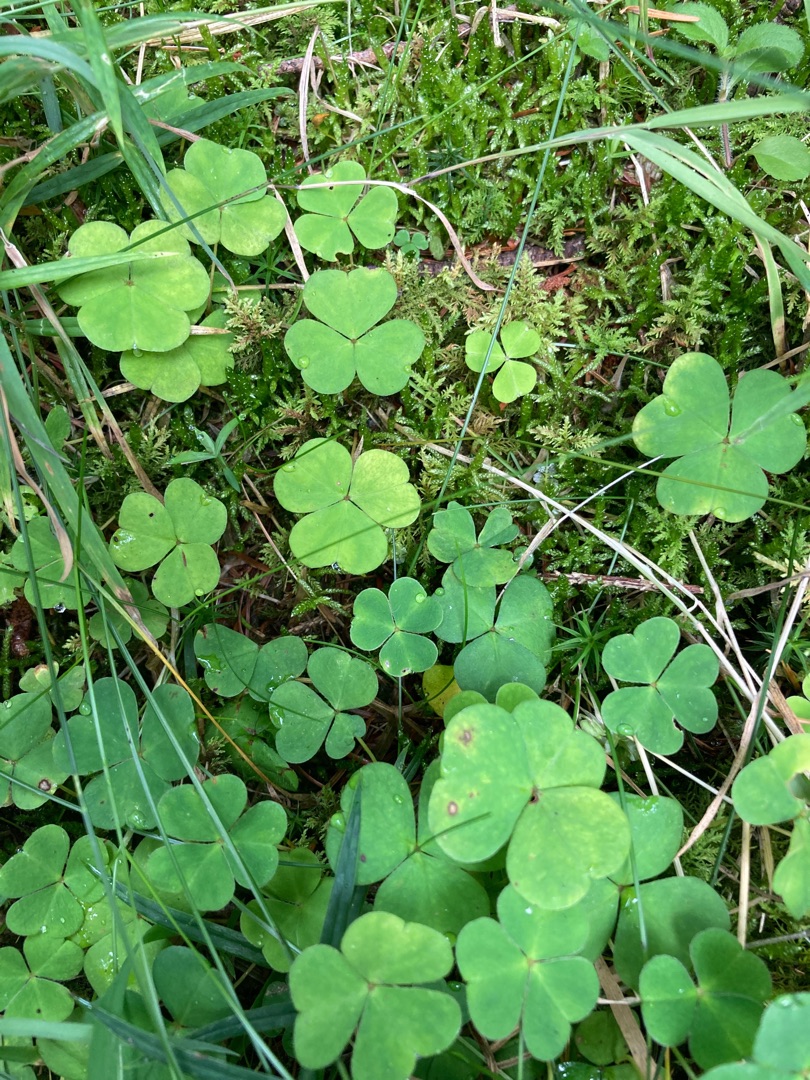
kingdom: Plantae
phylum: Tracheophyta
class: Magnoliopsida
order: Oxalidales
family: Oxalidaceae
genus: Oxalis
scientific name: Oxalis acetosella
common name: Skovsyre
